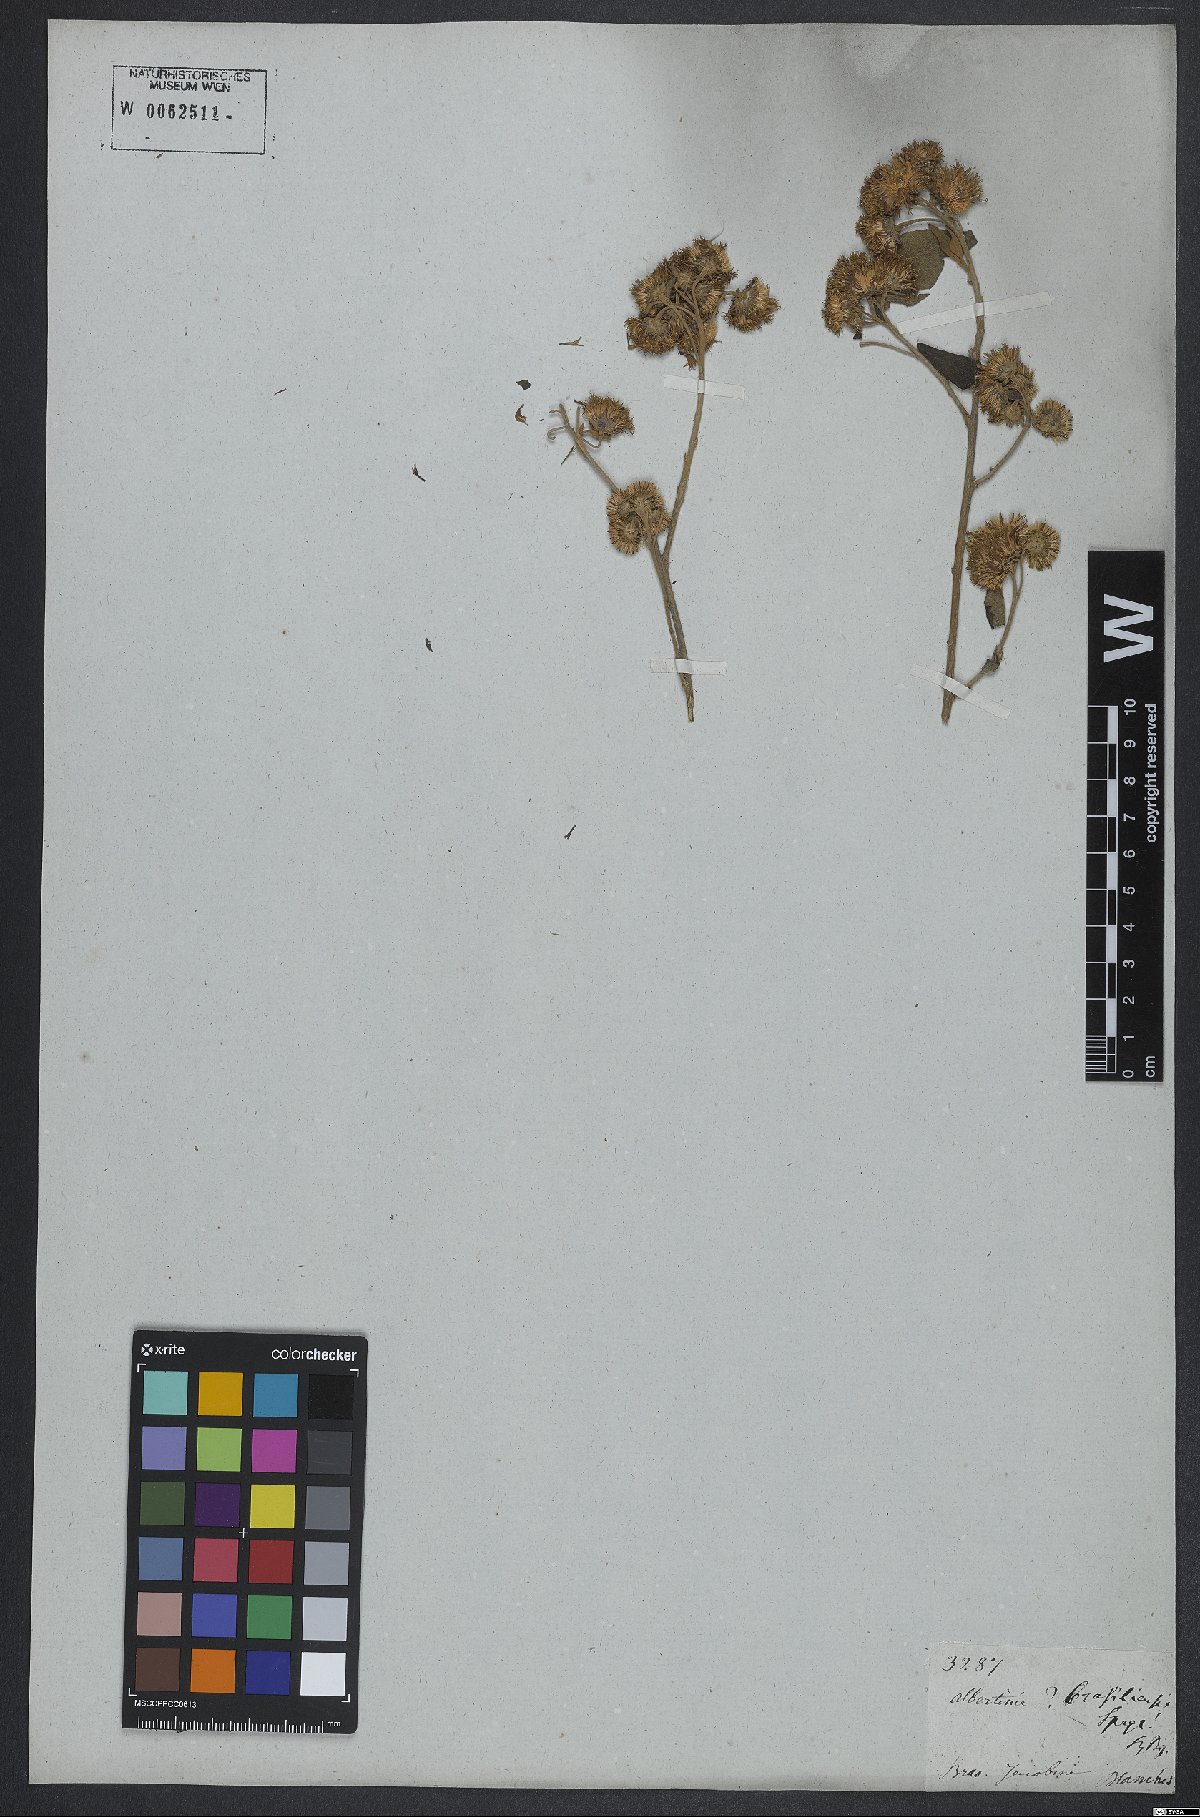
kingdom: Plantae
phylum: Tracheophyta
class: Magnoliopsida
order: Asterales
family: Asteraceae
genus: Albertinia
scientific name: Albertinia brasiliensis
